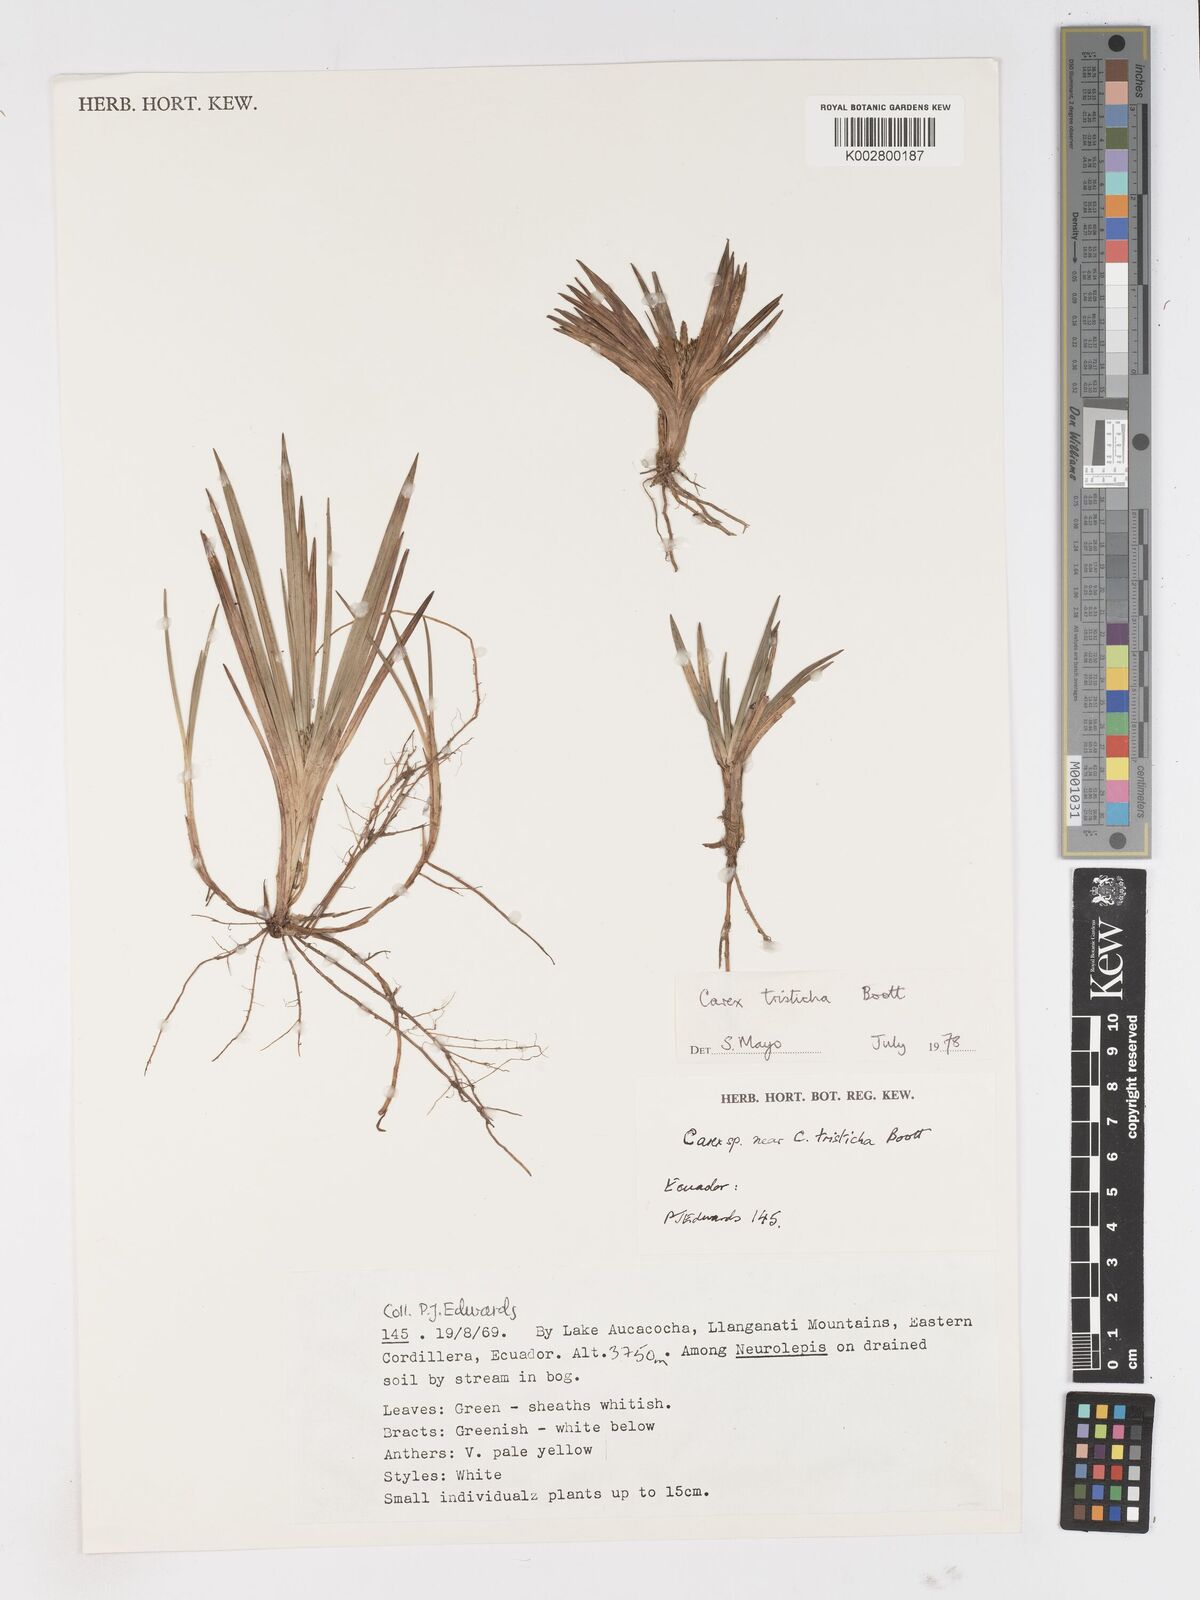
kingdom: Plantae
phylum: Tracheophyta
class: Liliopsida
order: Poales
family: Cyperaceae
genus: Carex
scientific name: Carex tamana
